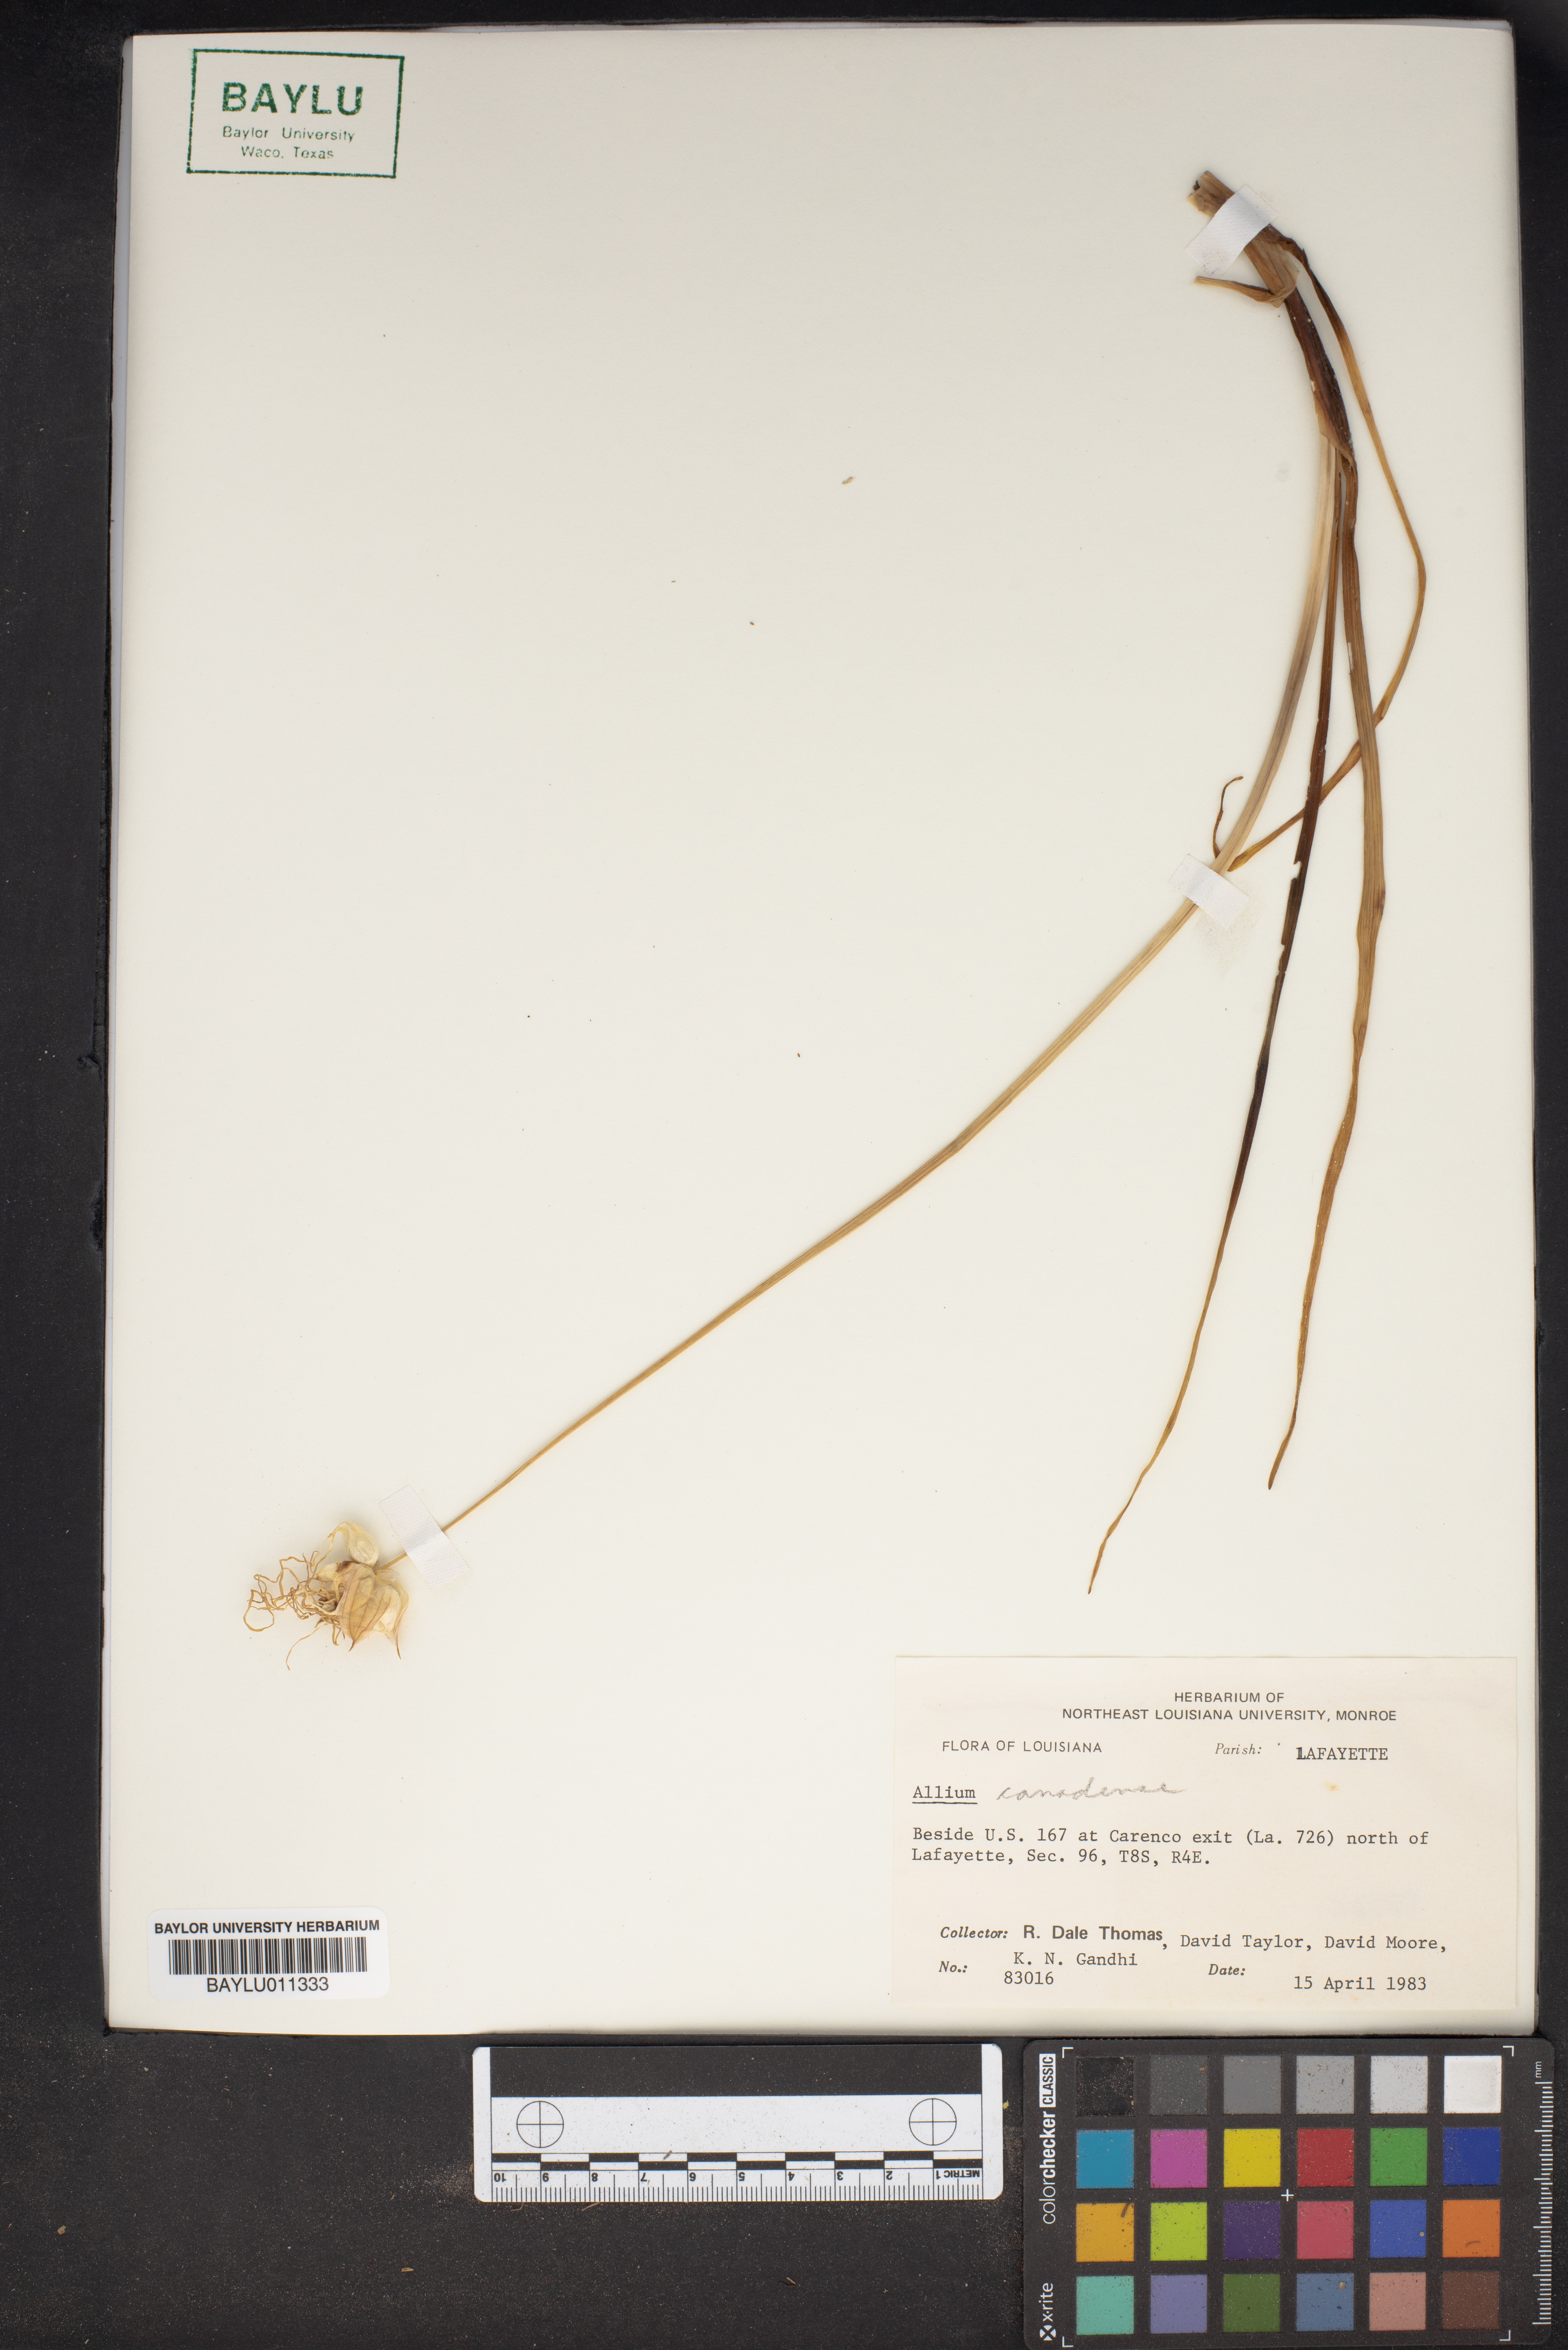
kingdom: Plantae
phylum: Tracheophyta
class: Liliopsida
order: Asparagales
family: Amaryllidaceae
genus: Allium
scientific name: Allium canadense
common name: Meadow garlic
